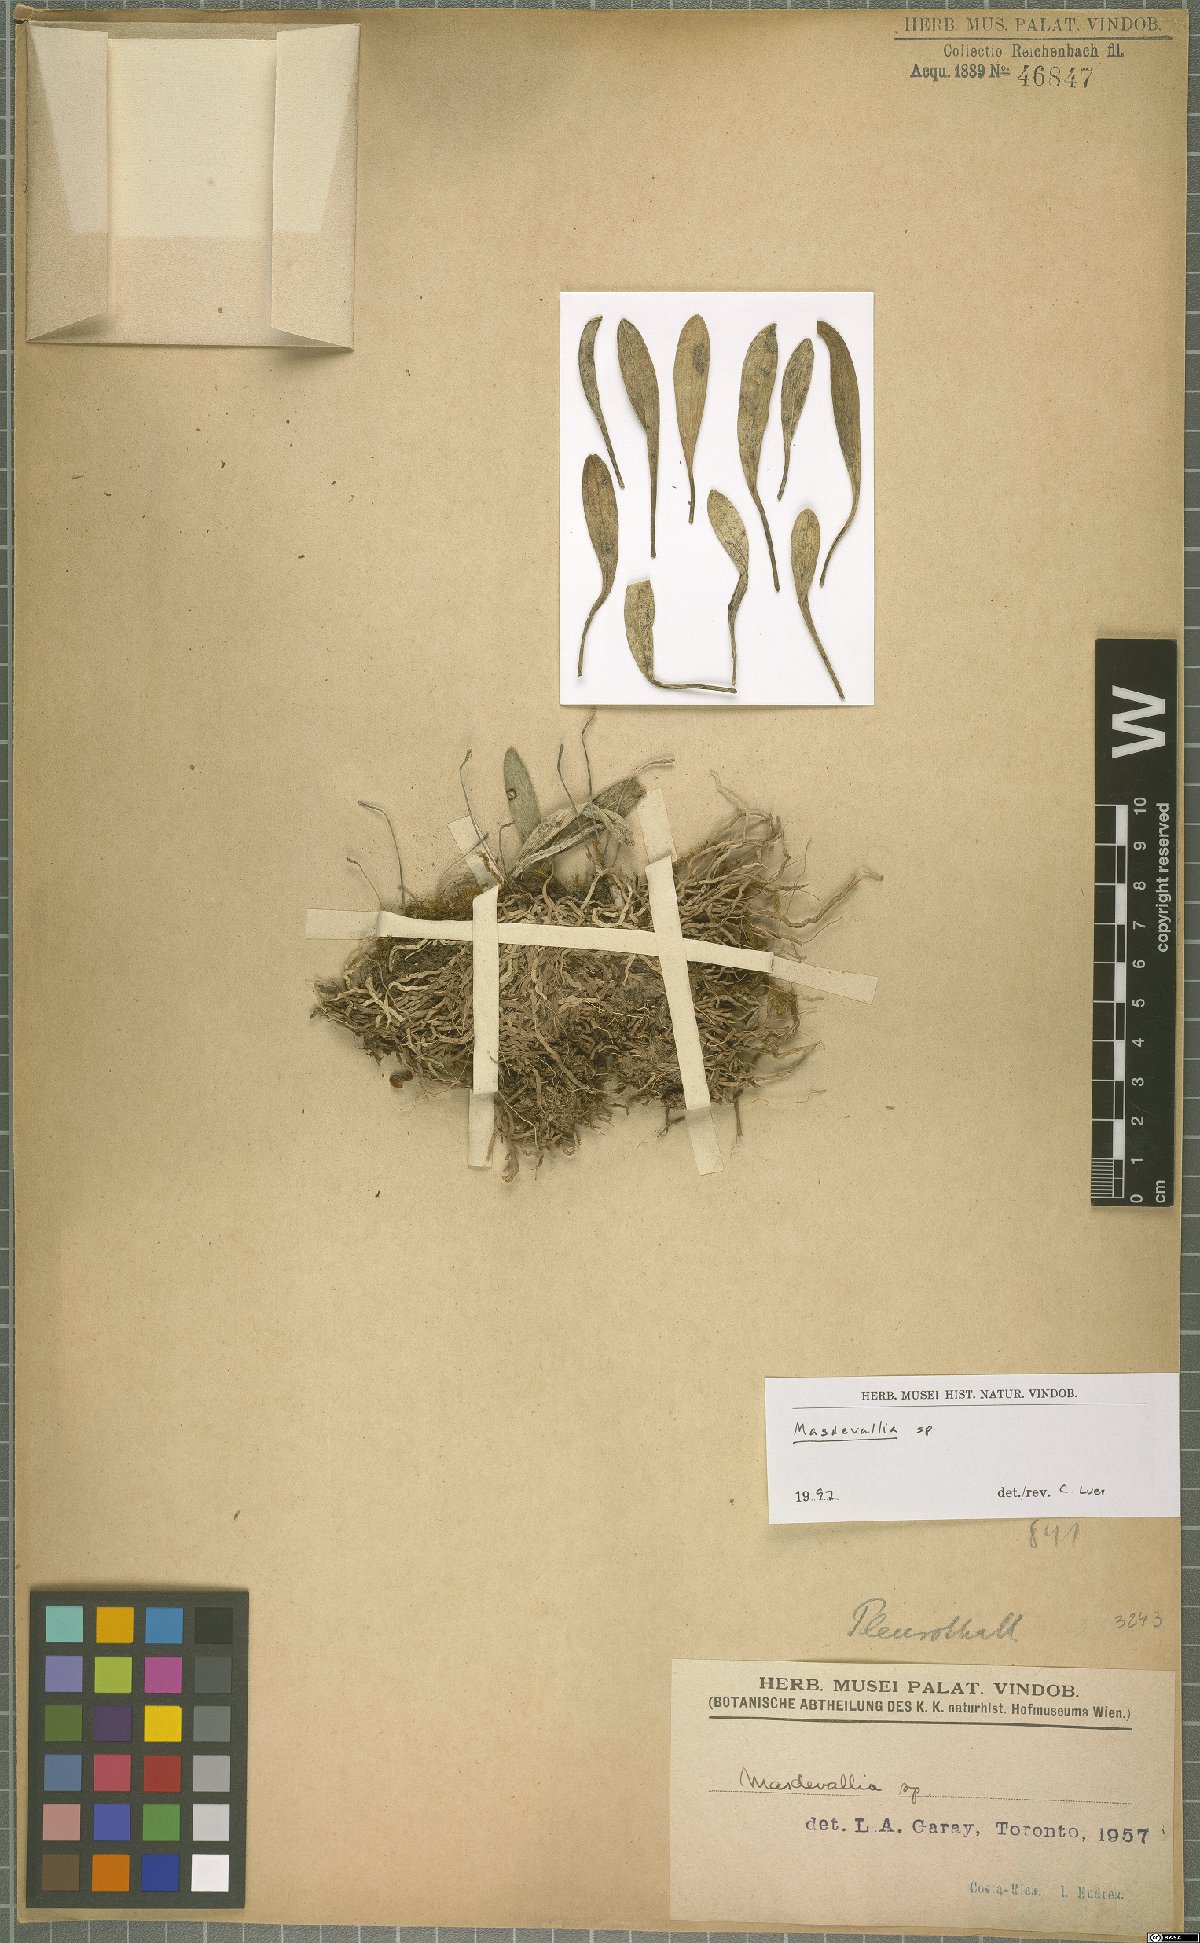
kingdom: Plantae
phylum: Tracheophyta
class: Liliopsida
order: Asparagales
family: Orchidaceae
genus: Masdevallia
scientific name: Masdevallia
